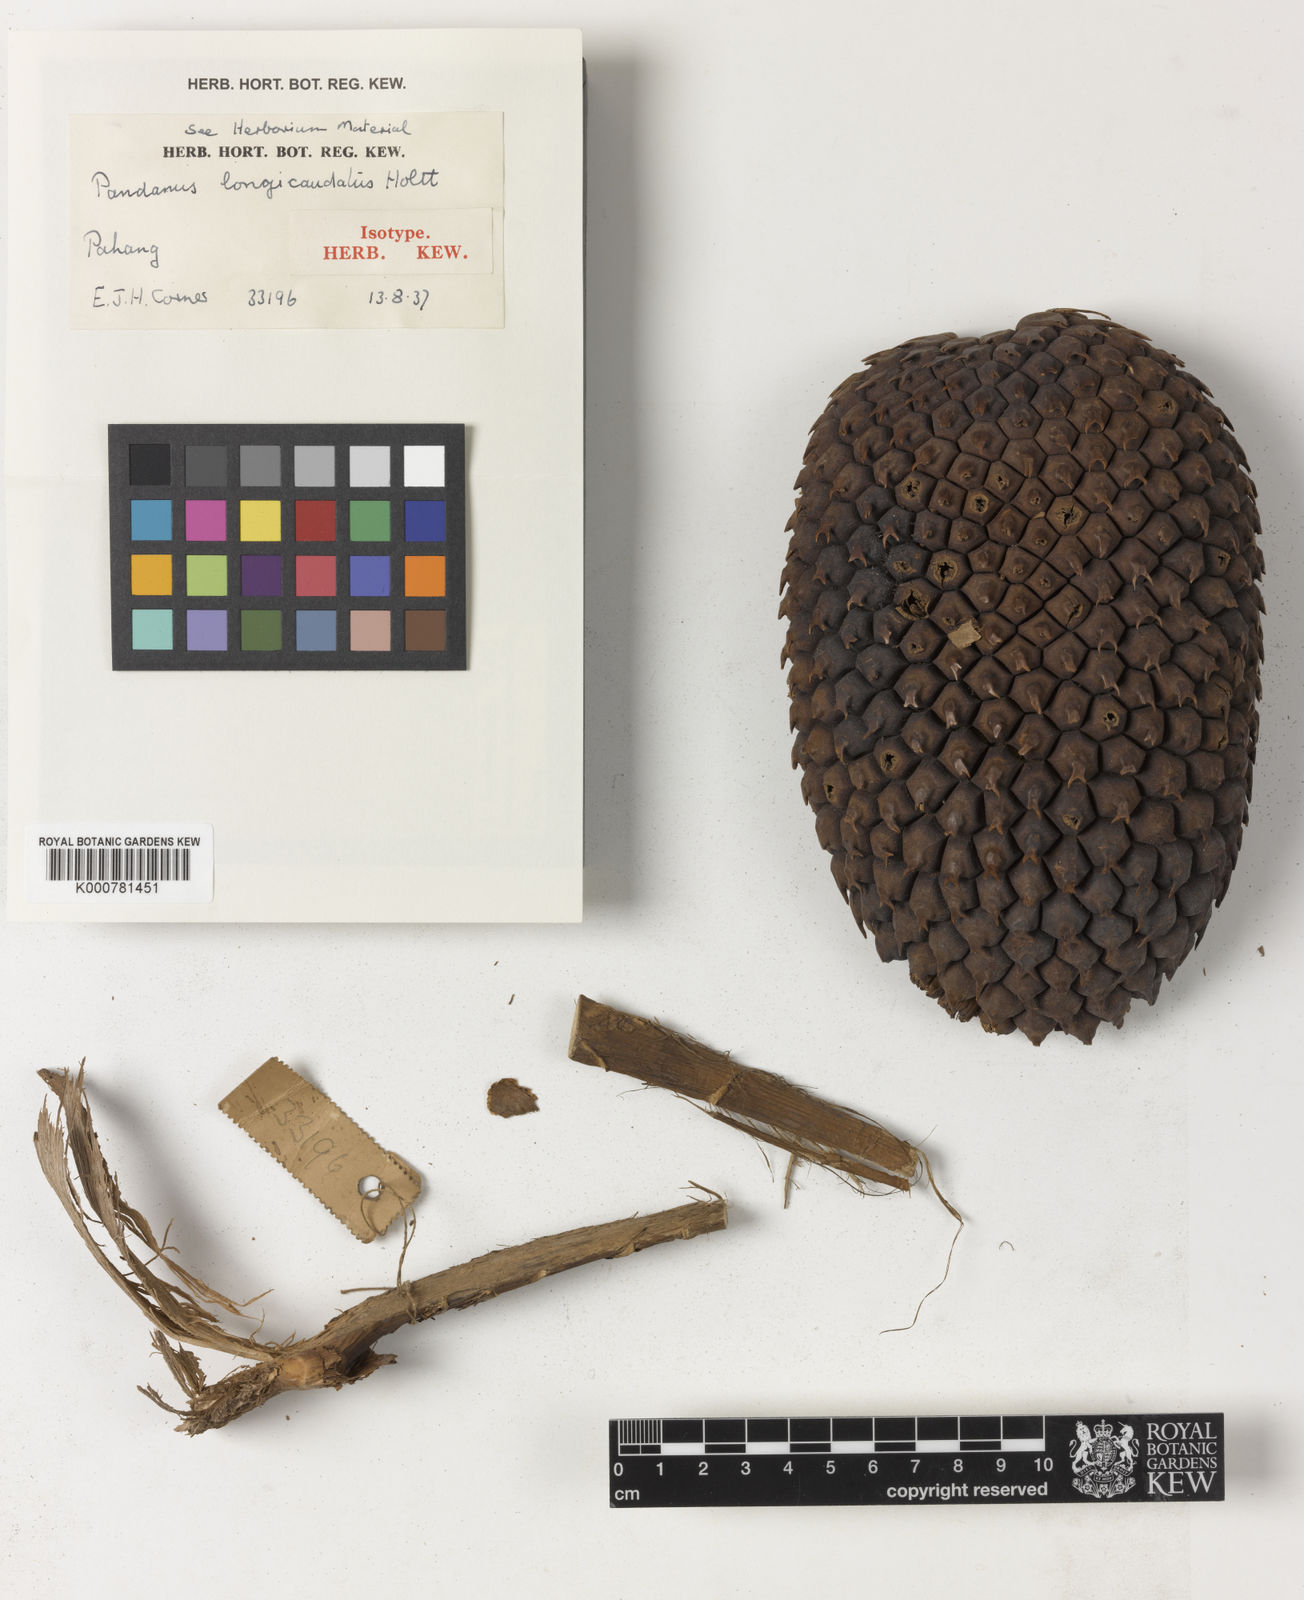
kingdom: Plantae
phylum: Tracheophyta
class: Liliopsida
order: Pandanales
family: Pandanaceae
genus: Pandanus
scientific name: Pandanus longicaudatus
